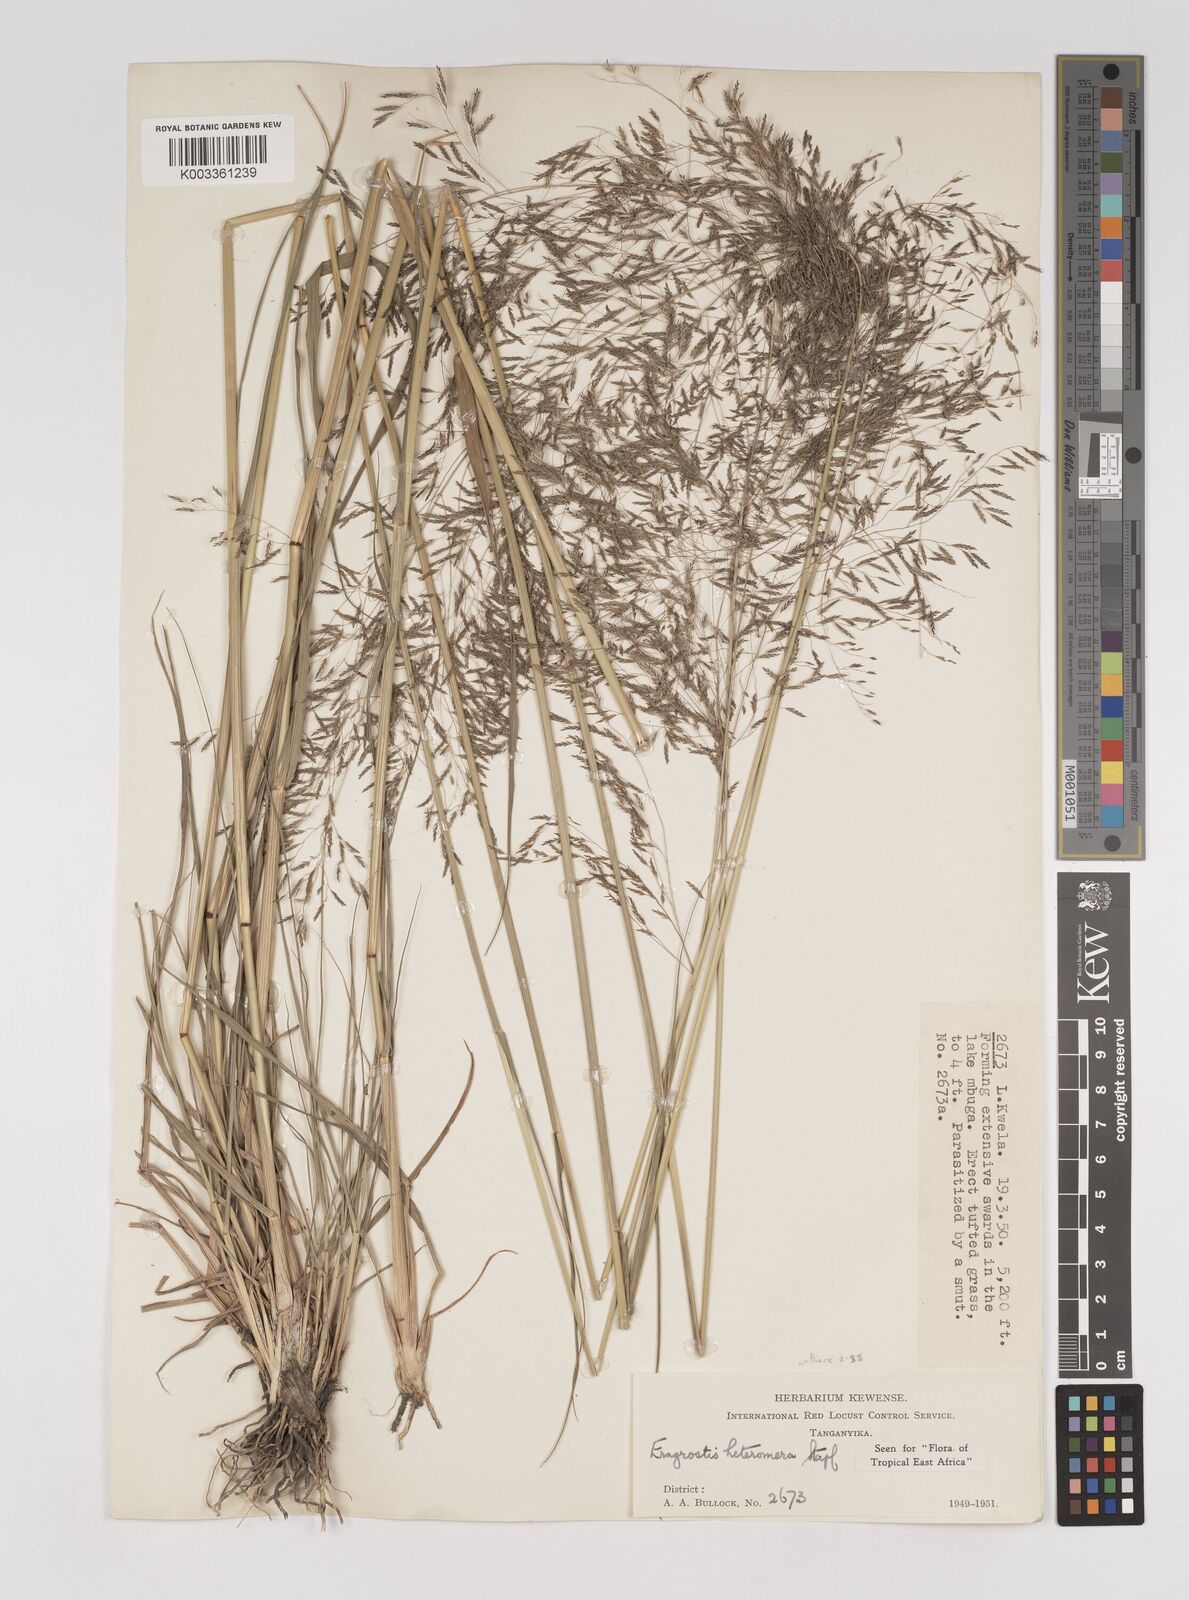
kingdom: Plantae
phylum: Tracheophyta
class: Liliopsida
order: Poales
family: Poaceae
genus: Eragrostis
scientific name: Eragrostis heteromera
